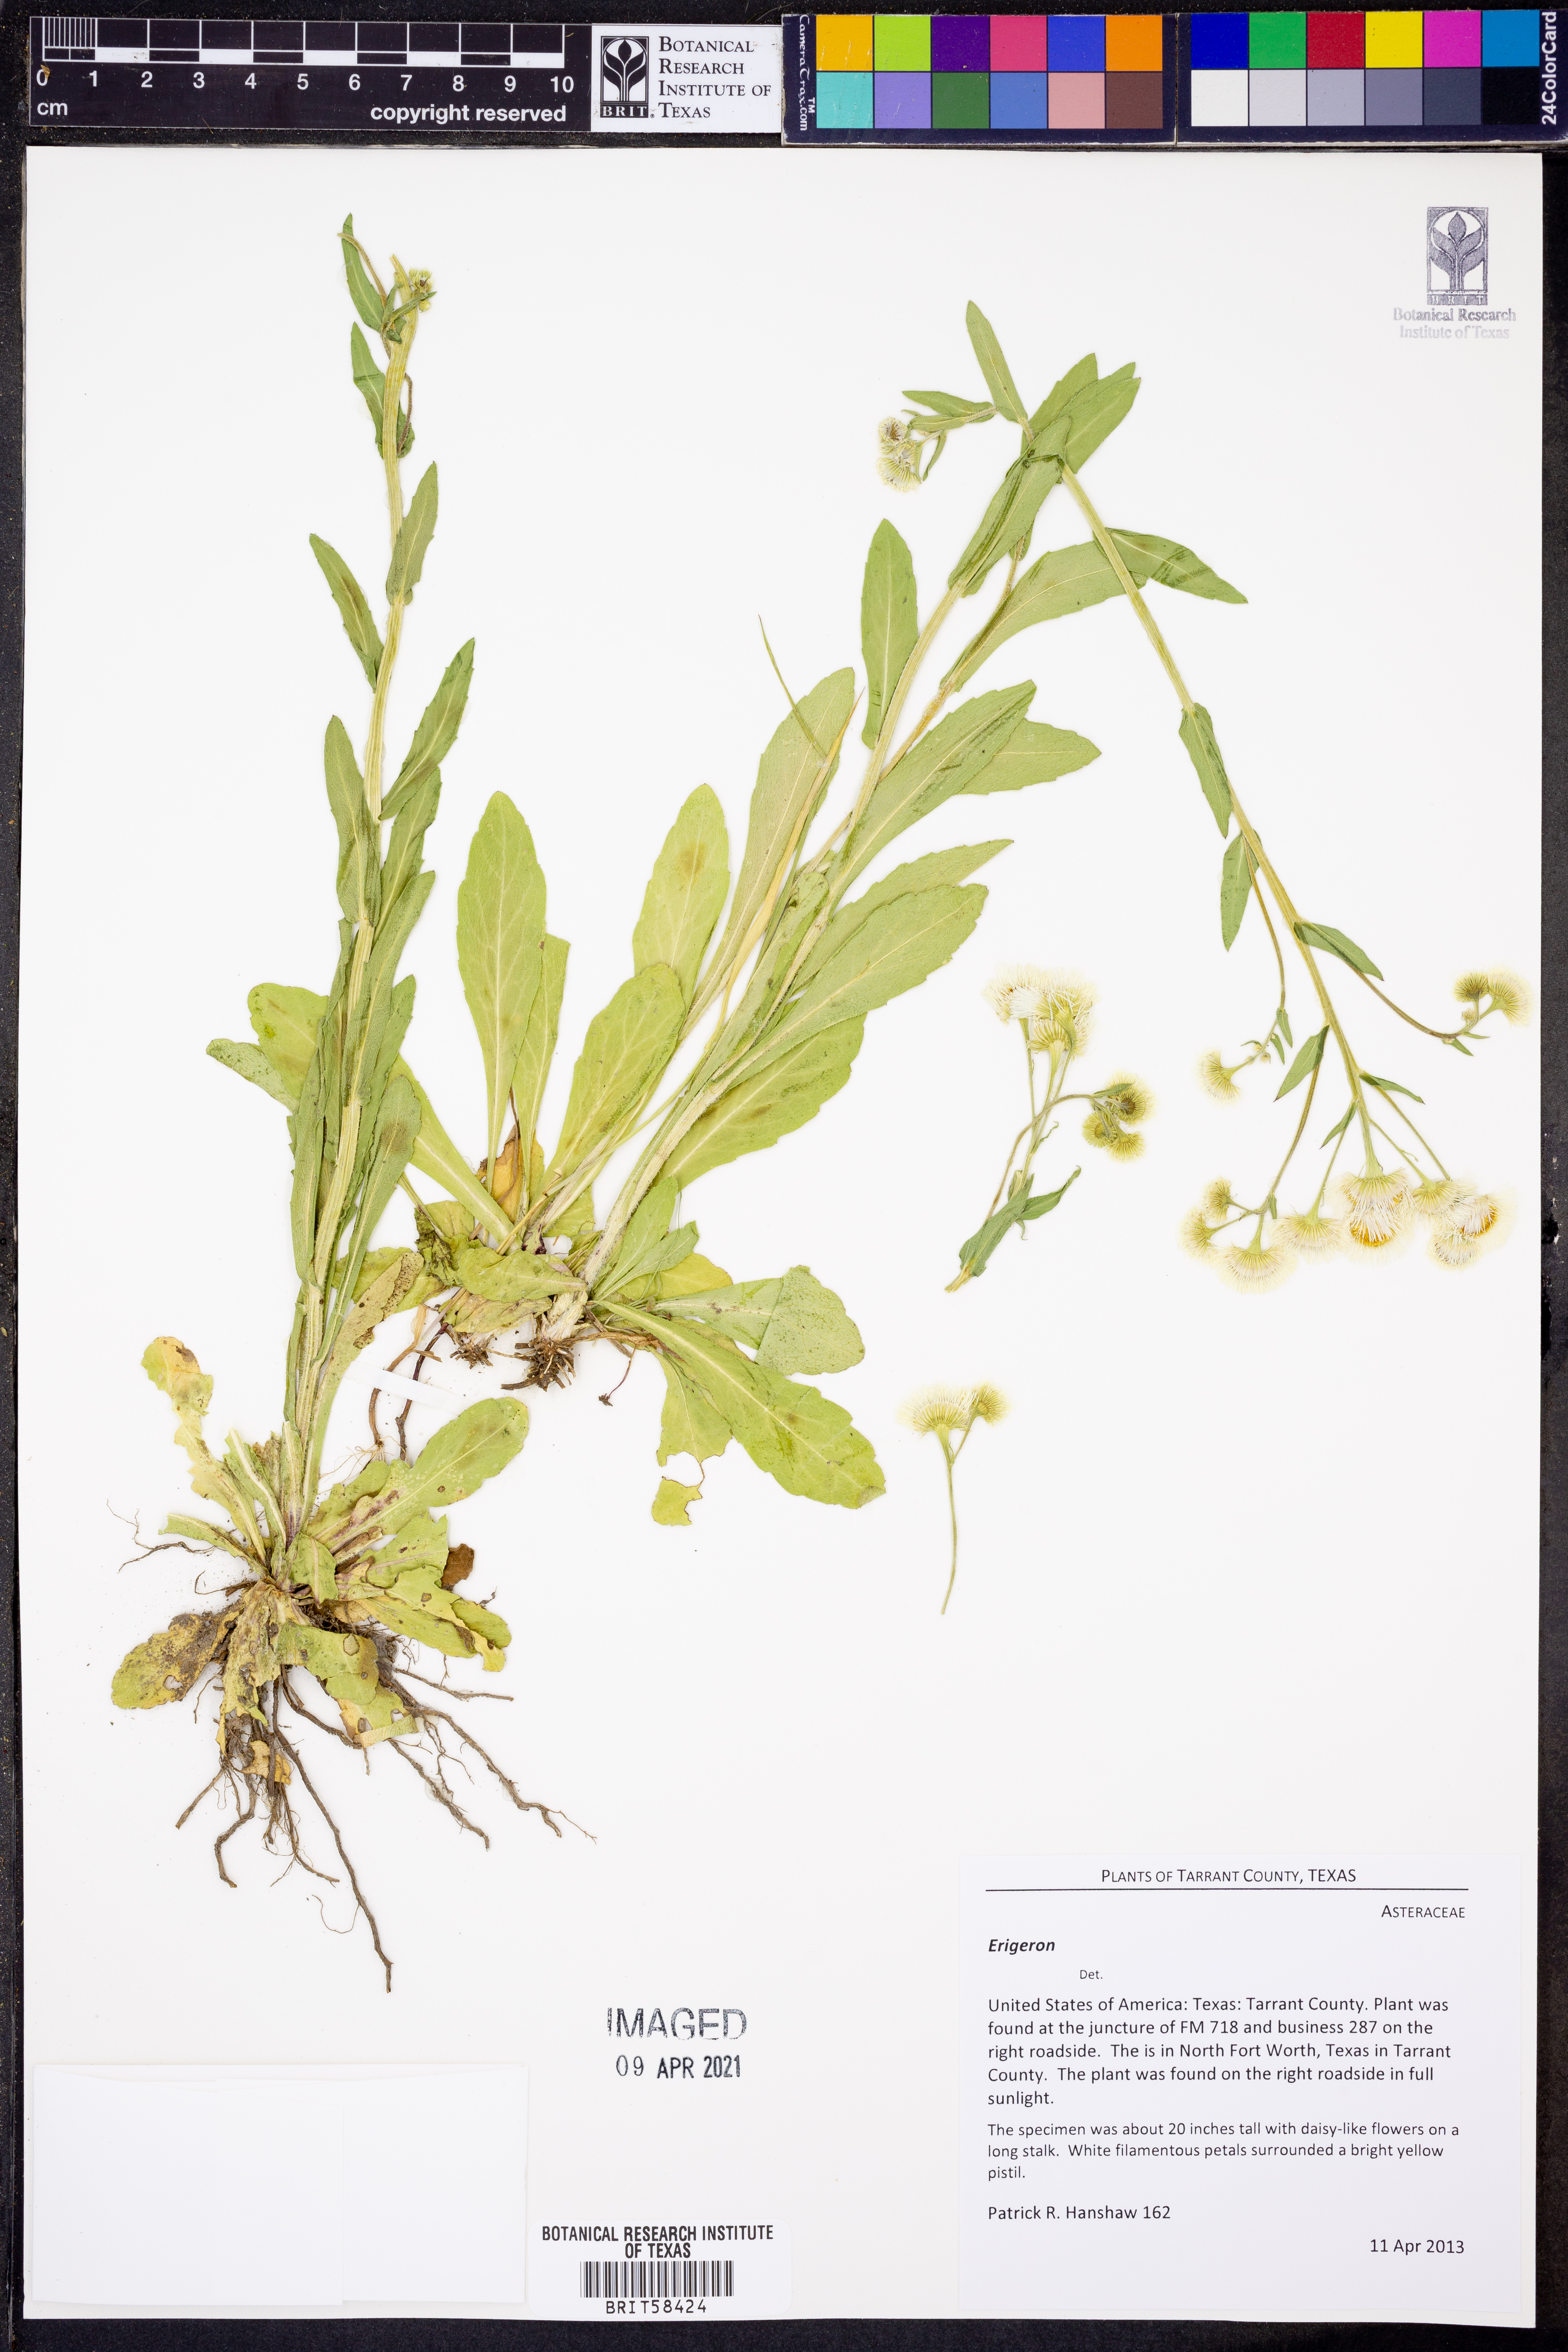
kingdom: Plantae
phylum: Tracheophyta
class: Magnoliopsida
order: Asterales
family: Asteraceae
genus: Erigeron
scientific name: Erigeron
